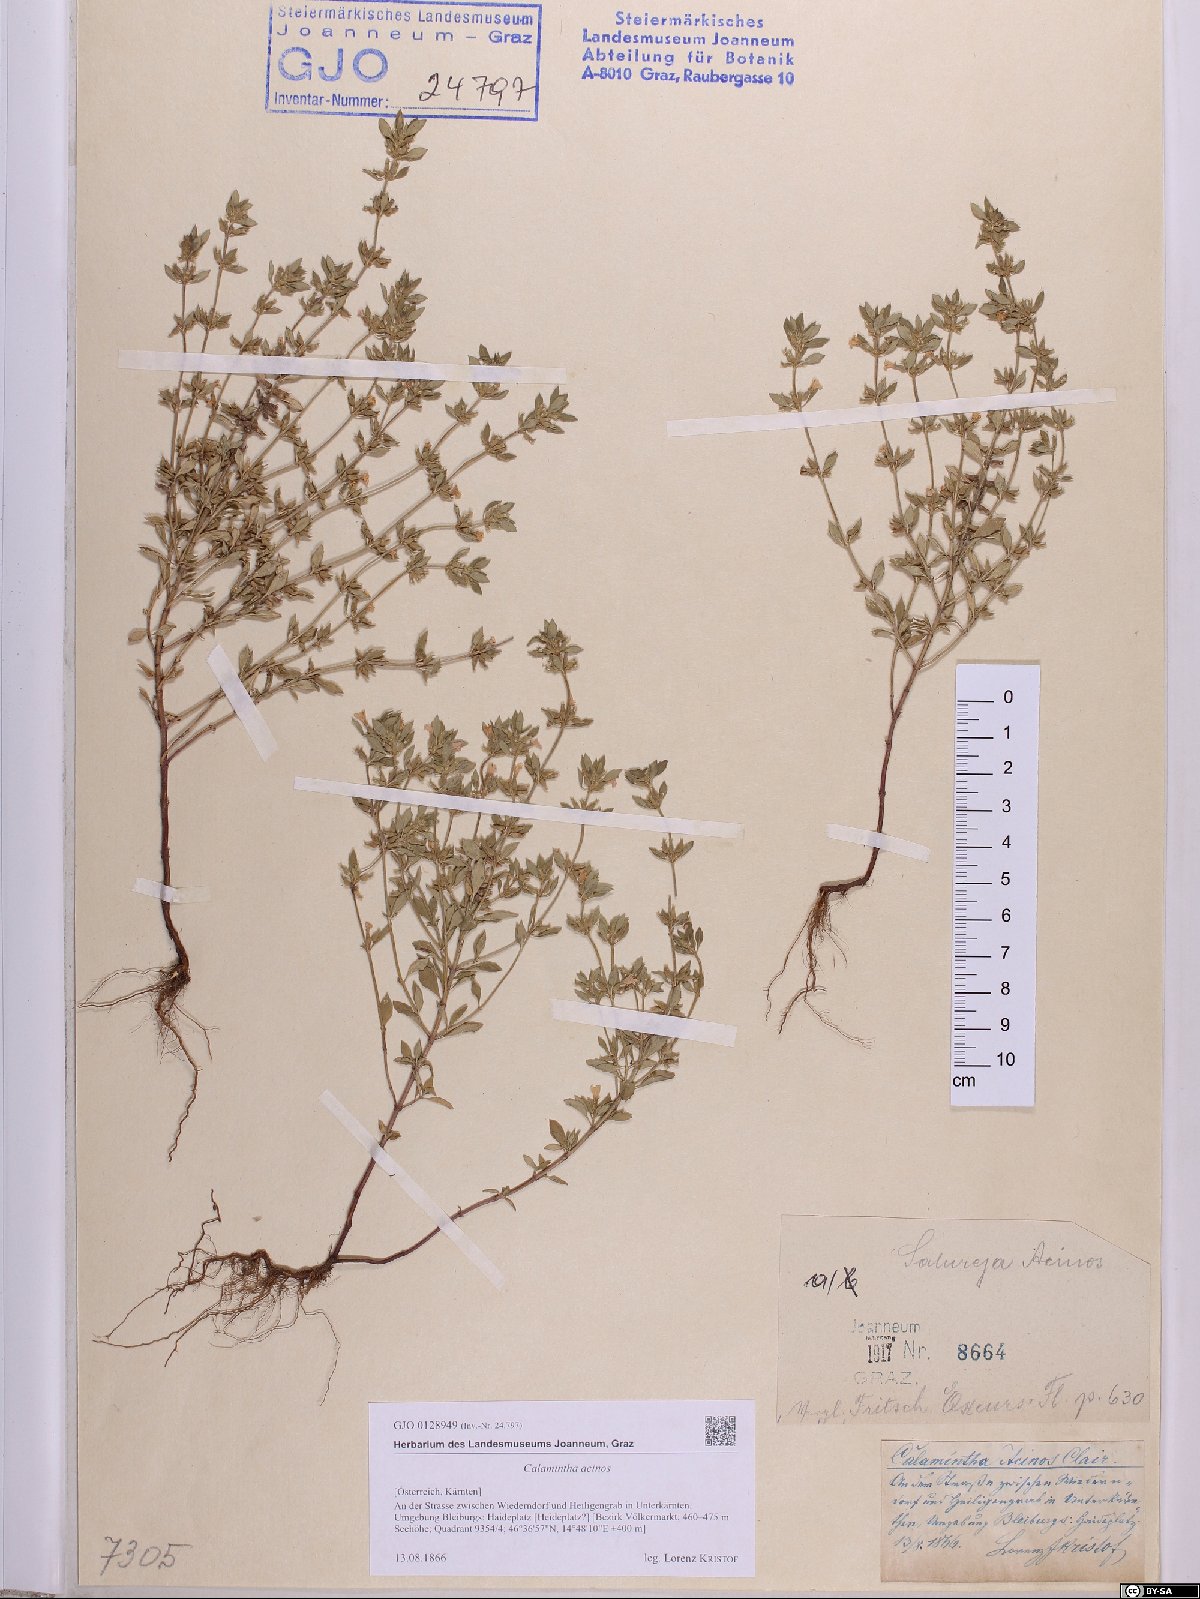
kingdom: Plantae
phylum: Tracheophyta
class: Magnoliopsida
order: Lamiales
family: Lamiaceae
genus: Clinopodium
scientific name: Clinopodium acinos
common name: Basil thyme
